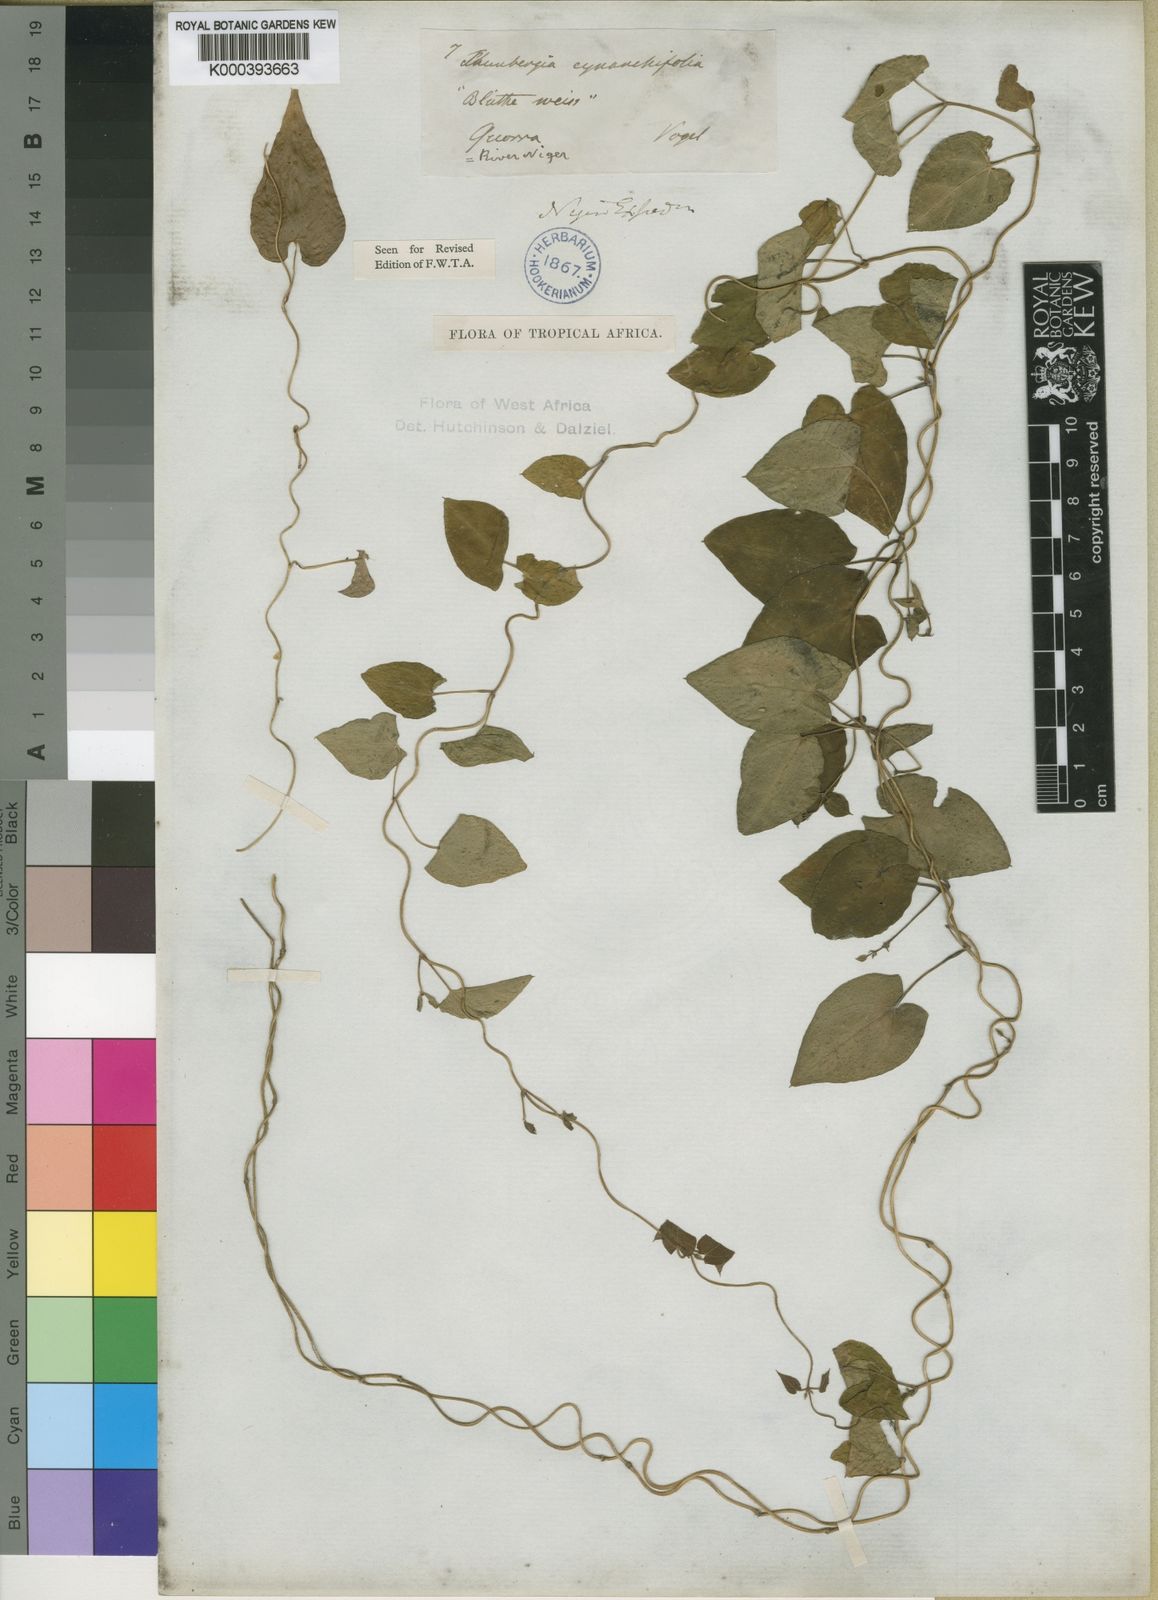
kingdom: Plantae
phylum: Tracheophyta
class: Magnoliopsida
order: Lamiales
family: Acanthaceae
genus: Thunbergia
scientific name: Thunbergia cynanchifolia
